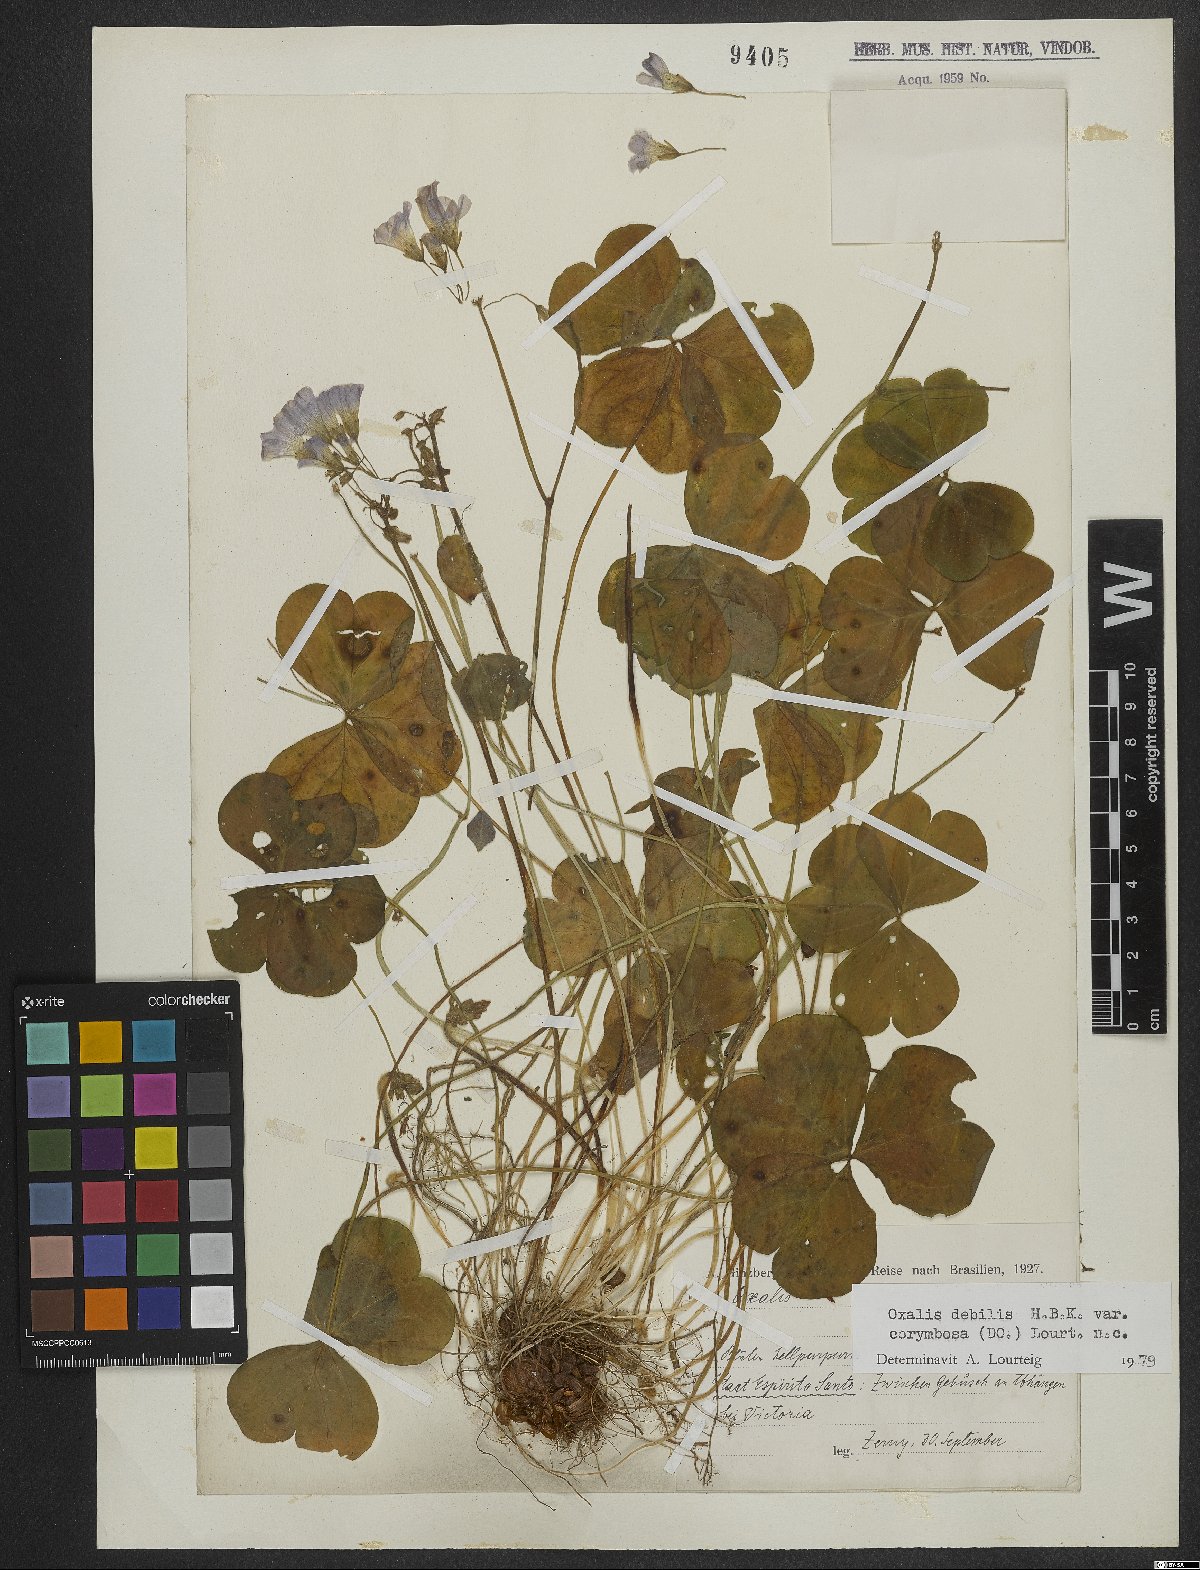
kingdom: Plantae
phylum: Tracheophyta
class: Magnoliopsida
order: Oxalidales
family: Oxalidaceae
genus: Oxalis
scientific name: Oxalis debilis
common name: Large-flowered pink-sorrel
